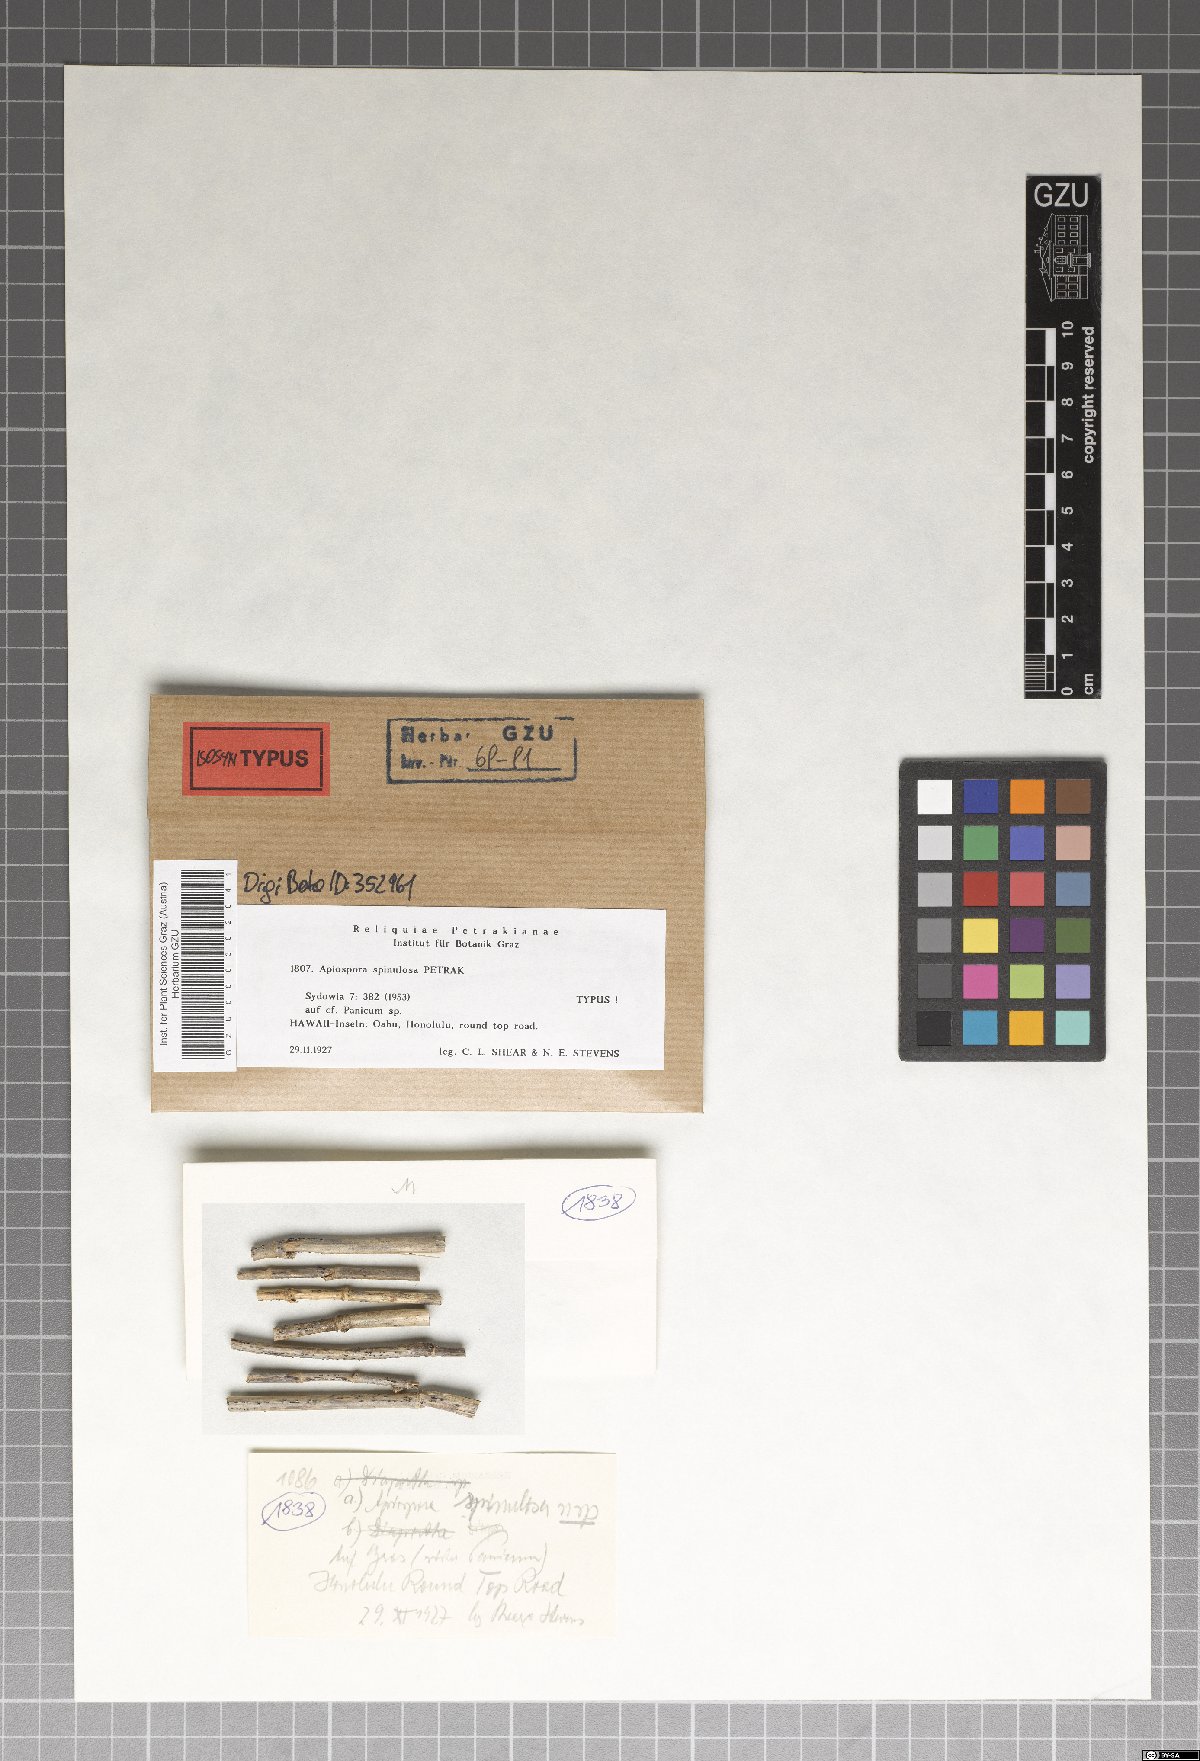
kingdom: Fungi
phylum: Ascomycota
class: Sordariomycetes
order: Xylariales
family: Apiosporaceae
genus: Apiospora
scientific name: Apiospora spinulosa
